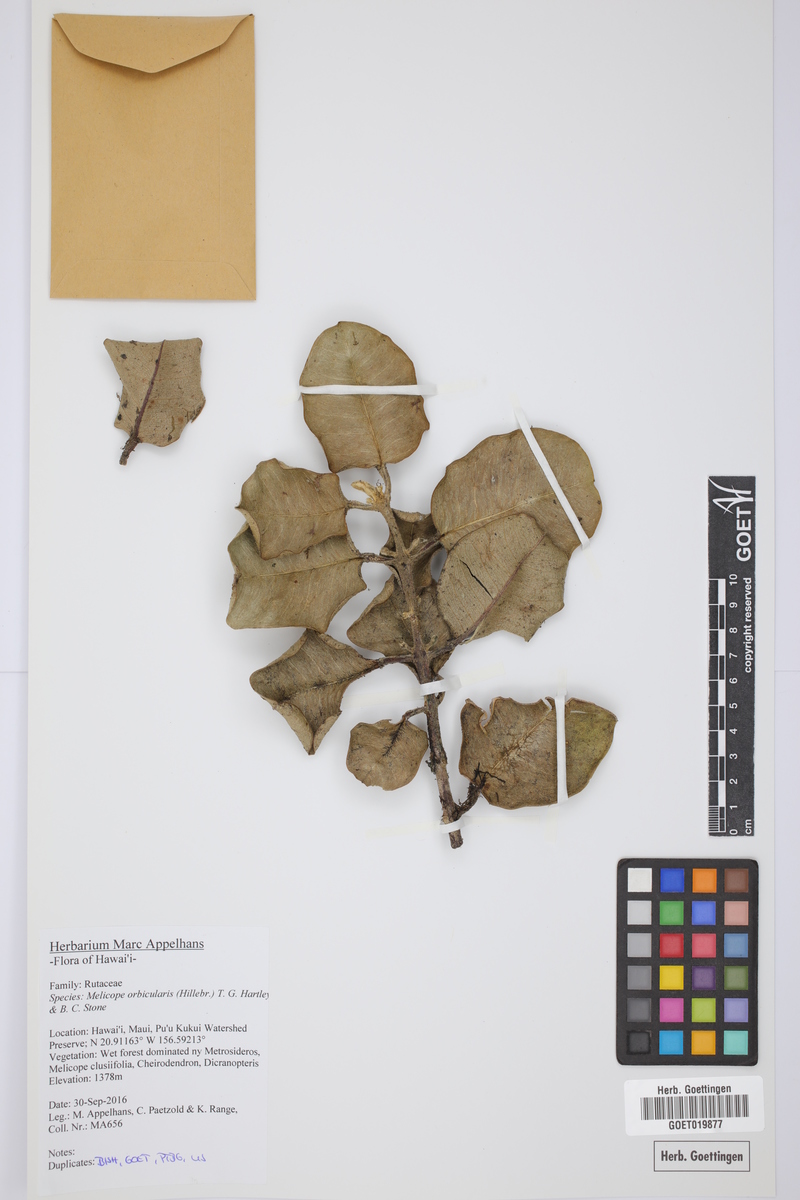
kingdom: Plantae
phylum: Tracheophyta
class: Magnoliopsida
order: Sapindales
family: Rutaceae
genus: Melicope
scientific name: Melicope orbicularis
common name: Orbicular pelea
